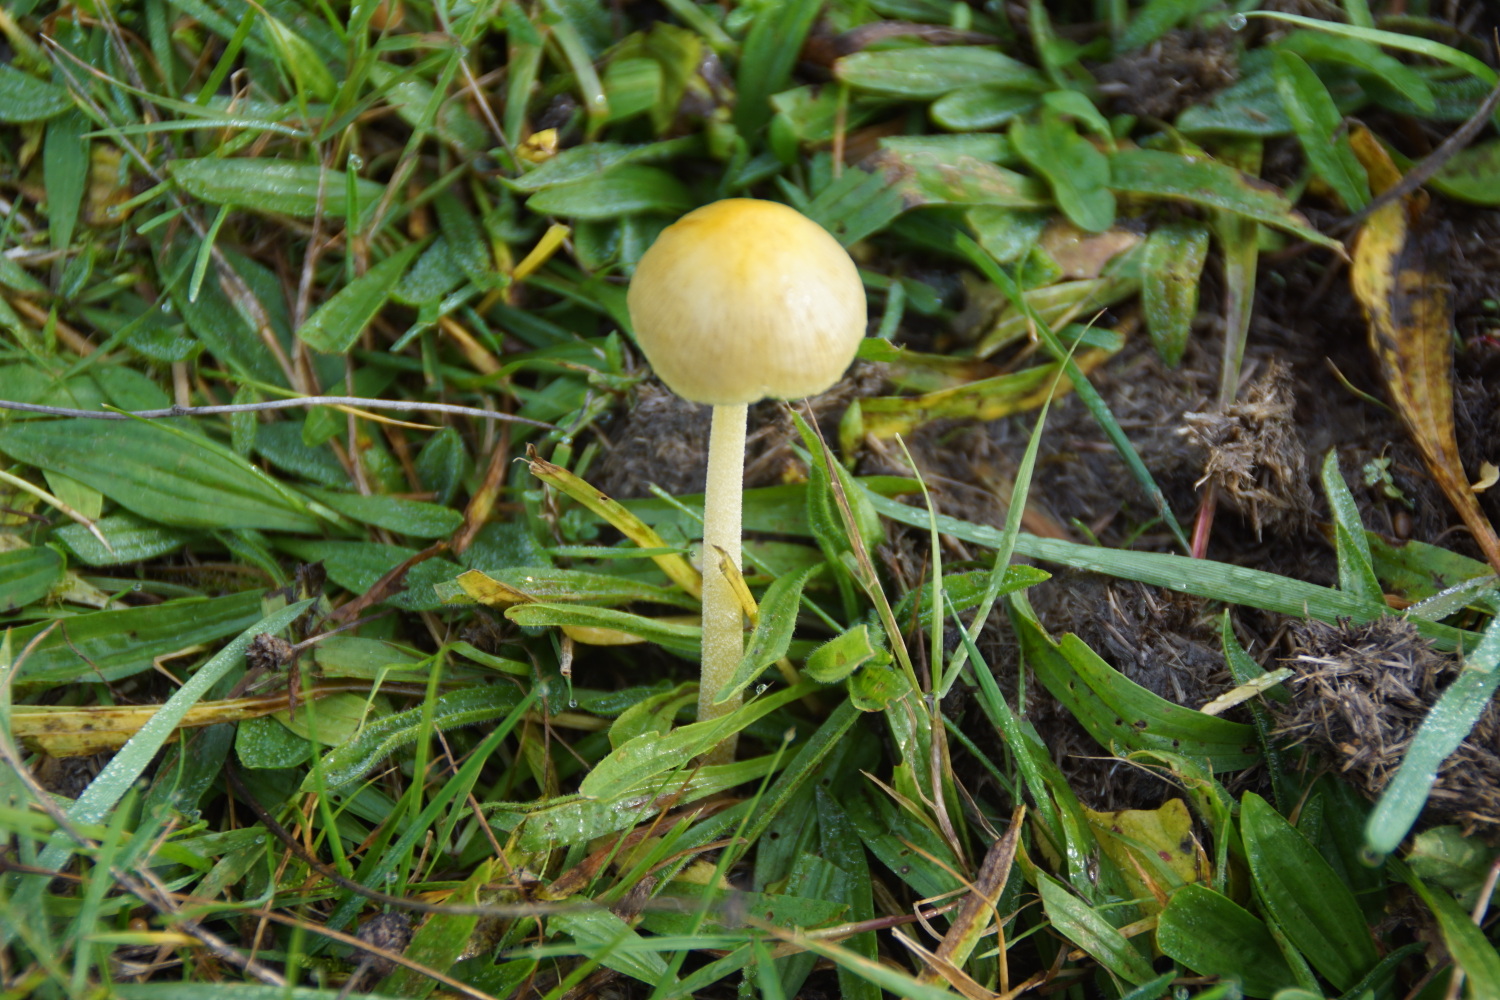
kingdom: Fungi
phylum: Basidiomycota
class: Agaricomycetes
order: Agaricales
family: Bolbitiaceae
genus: Bolbitius
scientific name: Bolbitius titubans
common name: almindelig gulhat
